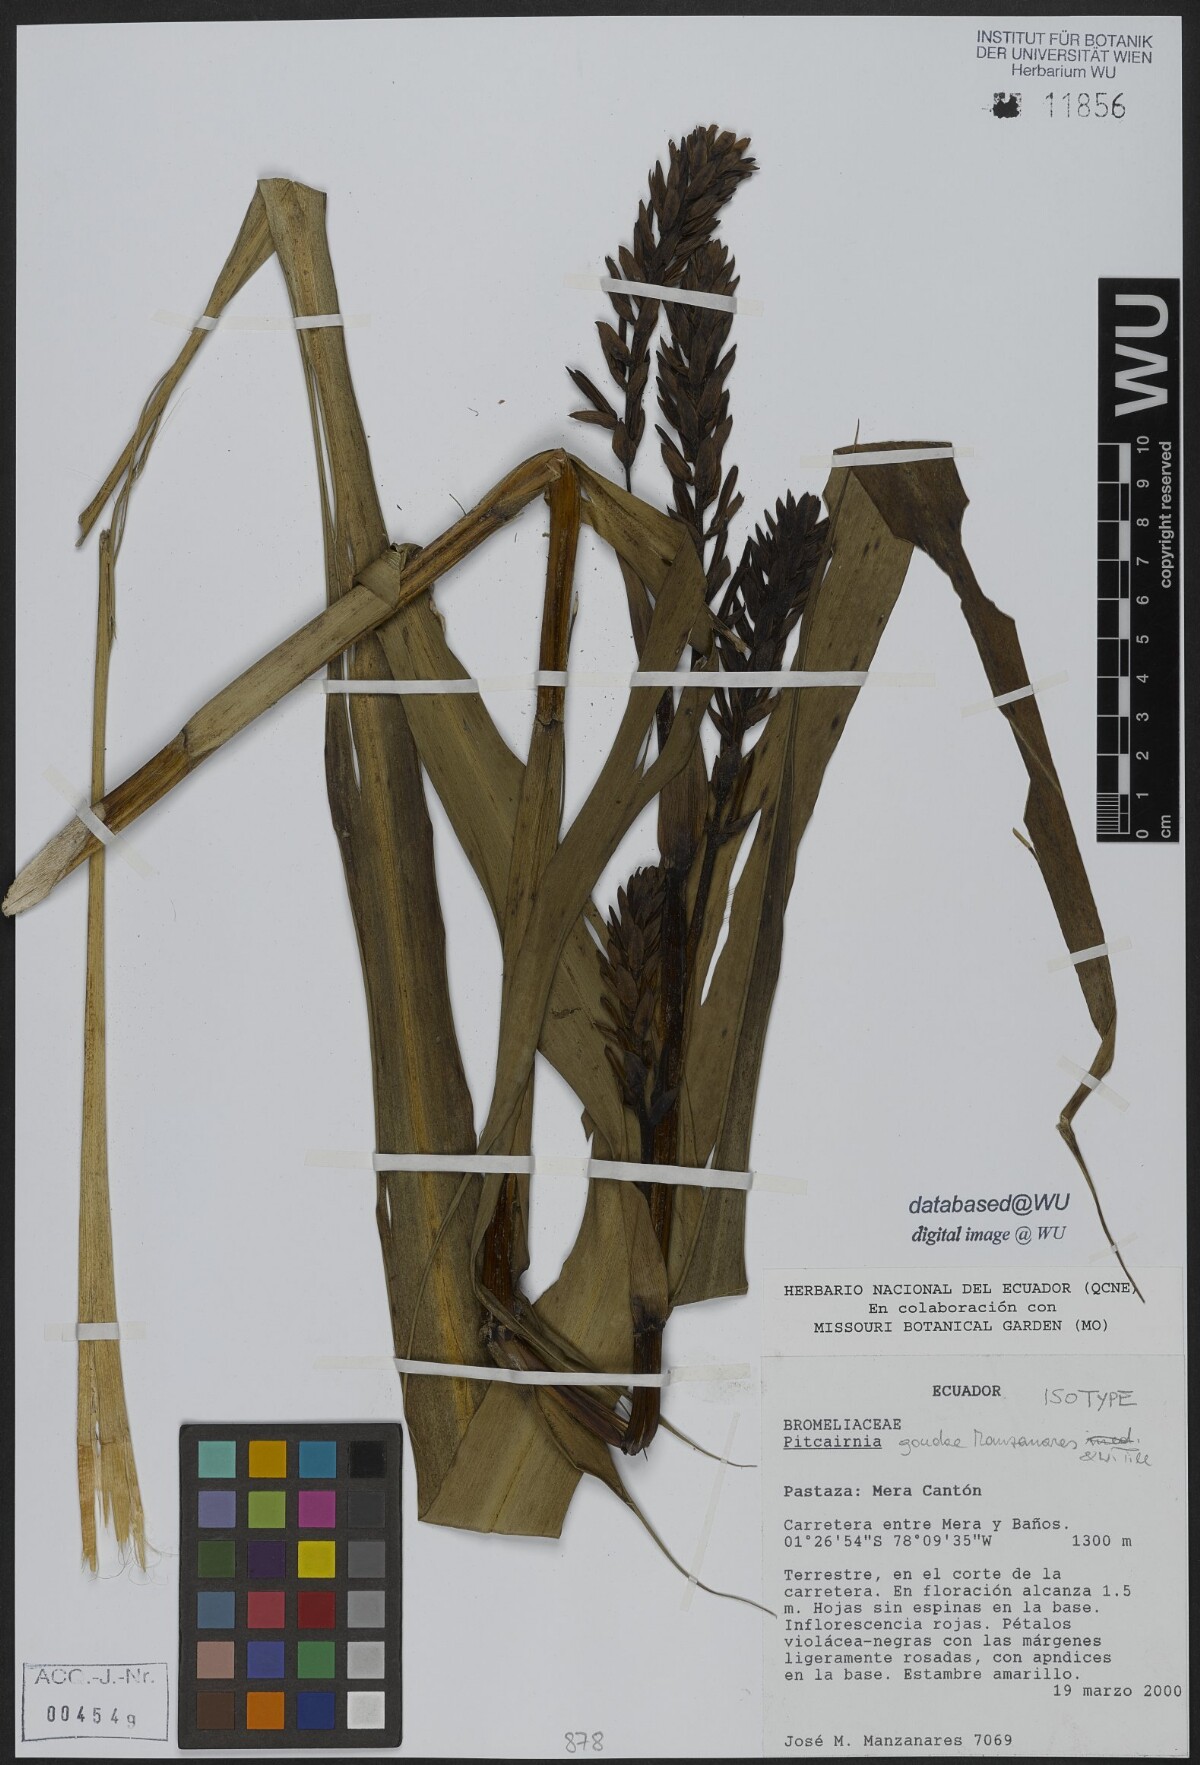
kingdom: Plantae
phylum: Tracheophyta
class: Liliopsida
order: Poales
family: Bromeliaceae
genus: Pitcairnia
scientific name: Pitcairnia goudae
